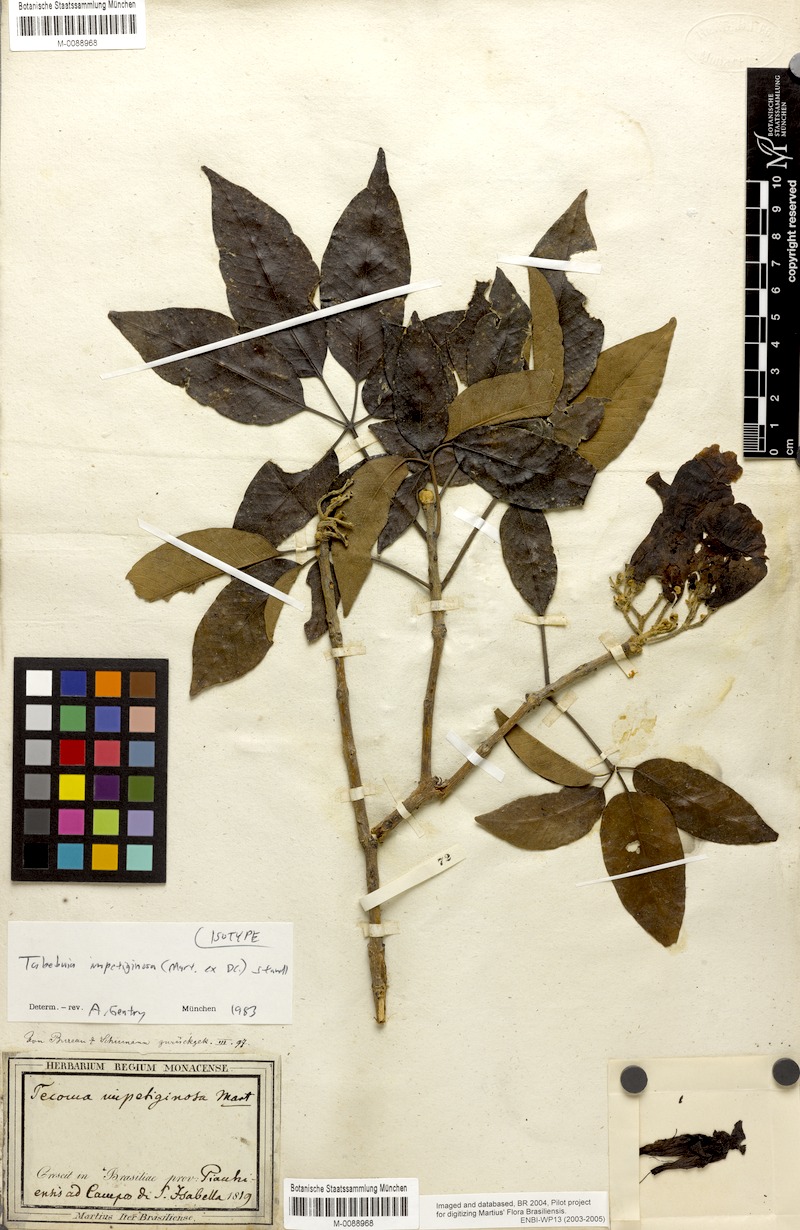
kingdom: Plantae
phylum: Tracheophyta
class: Magnoliopsida
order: Lamiales
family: Bignoniaceae
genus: Handroanthus
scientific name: Handroanthus impetiginosum
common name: Pink trumpet tree
